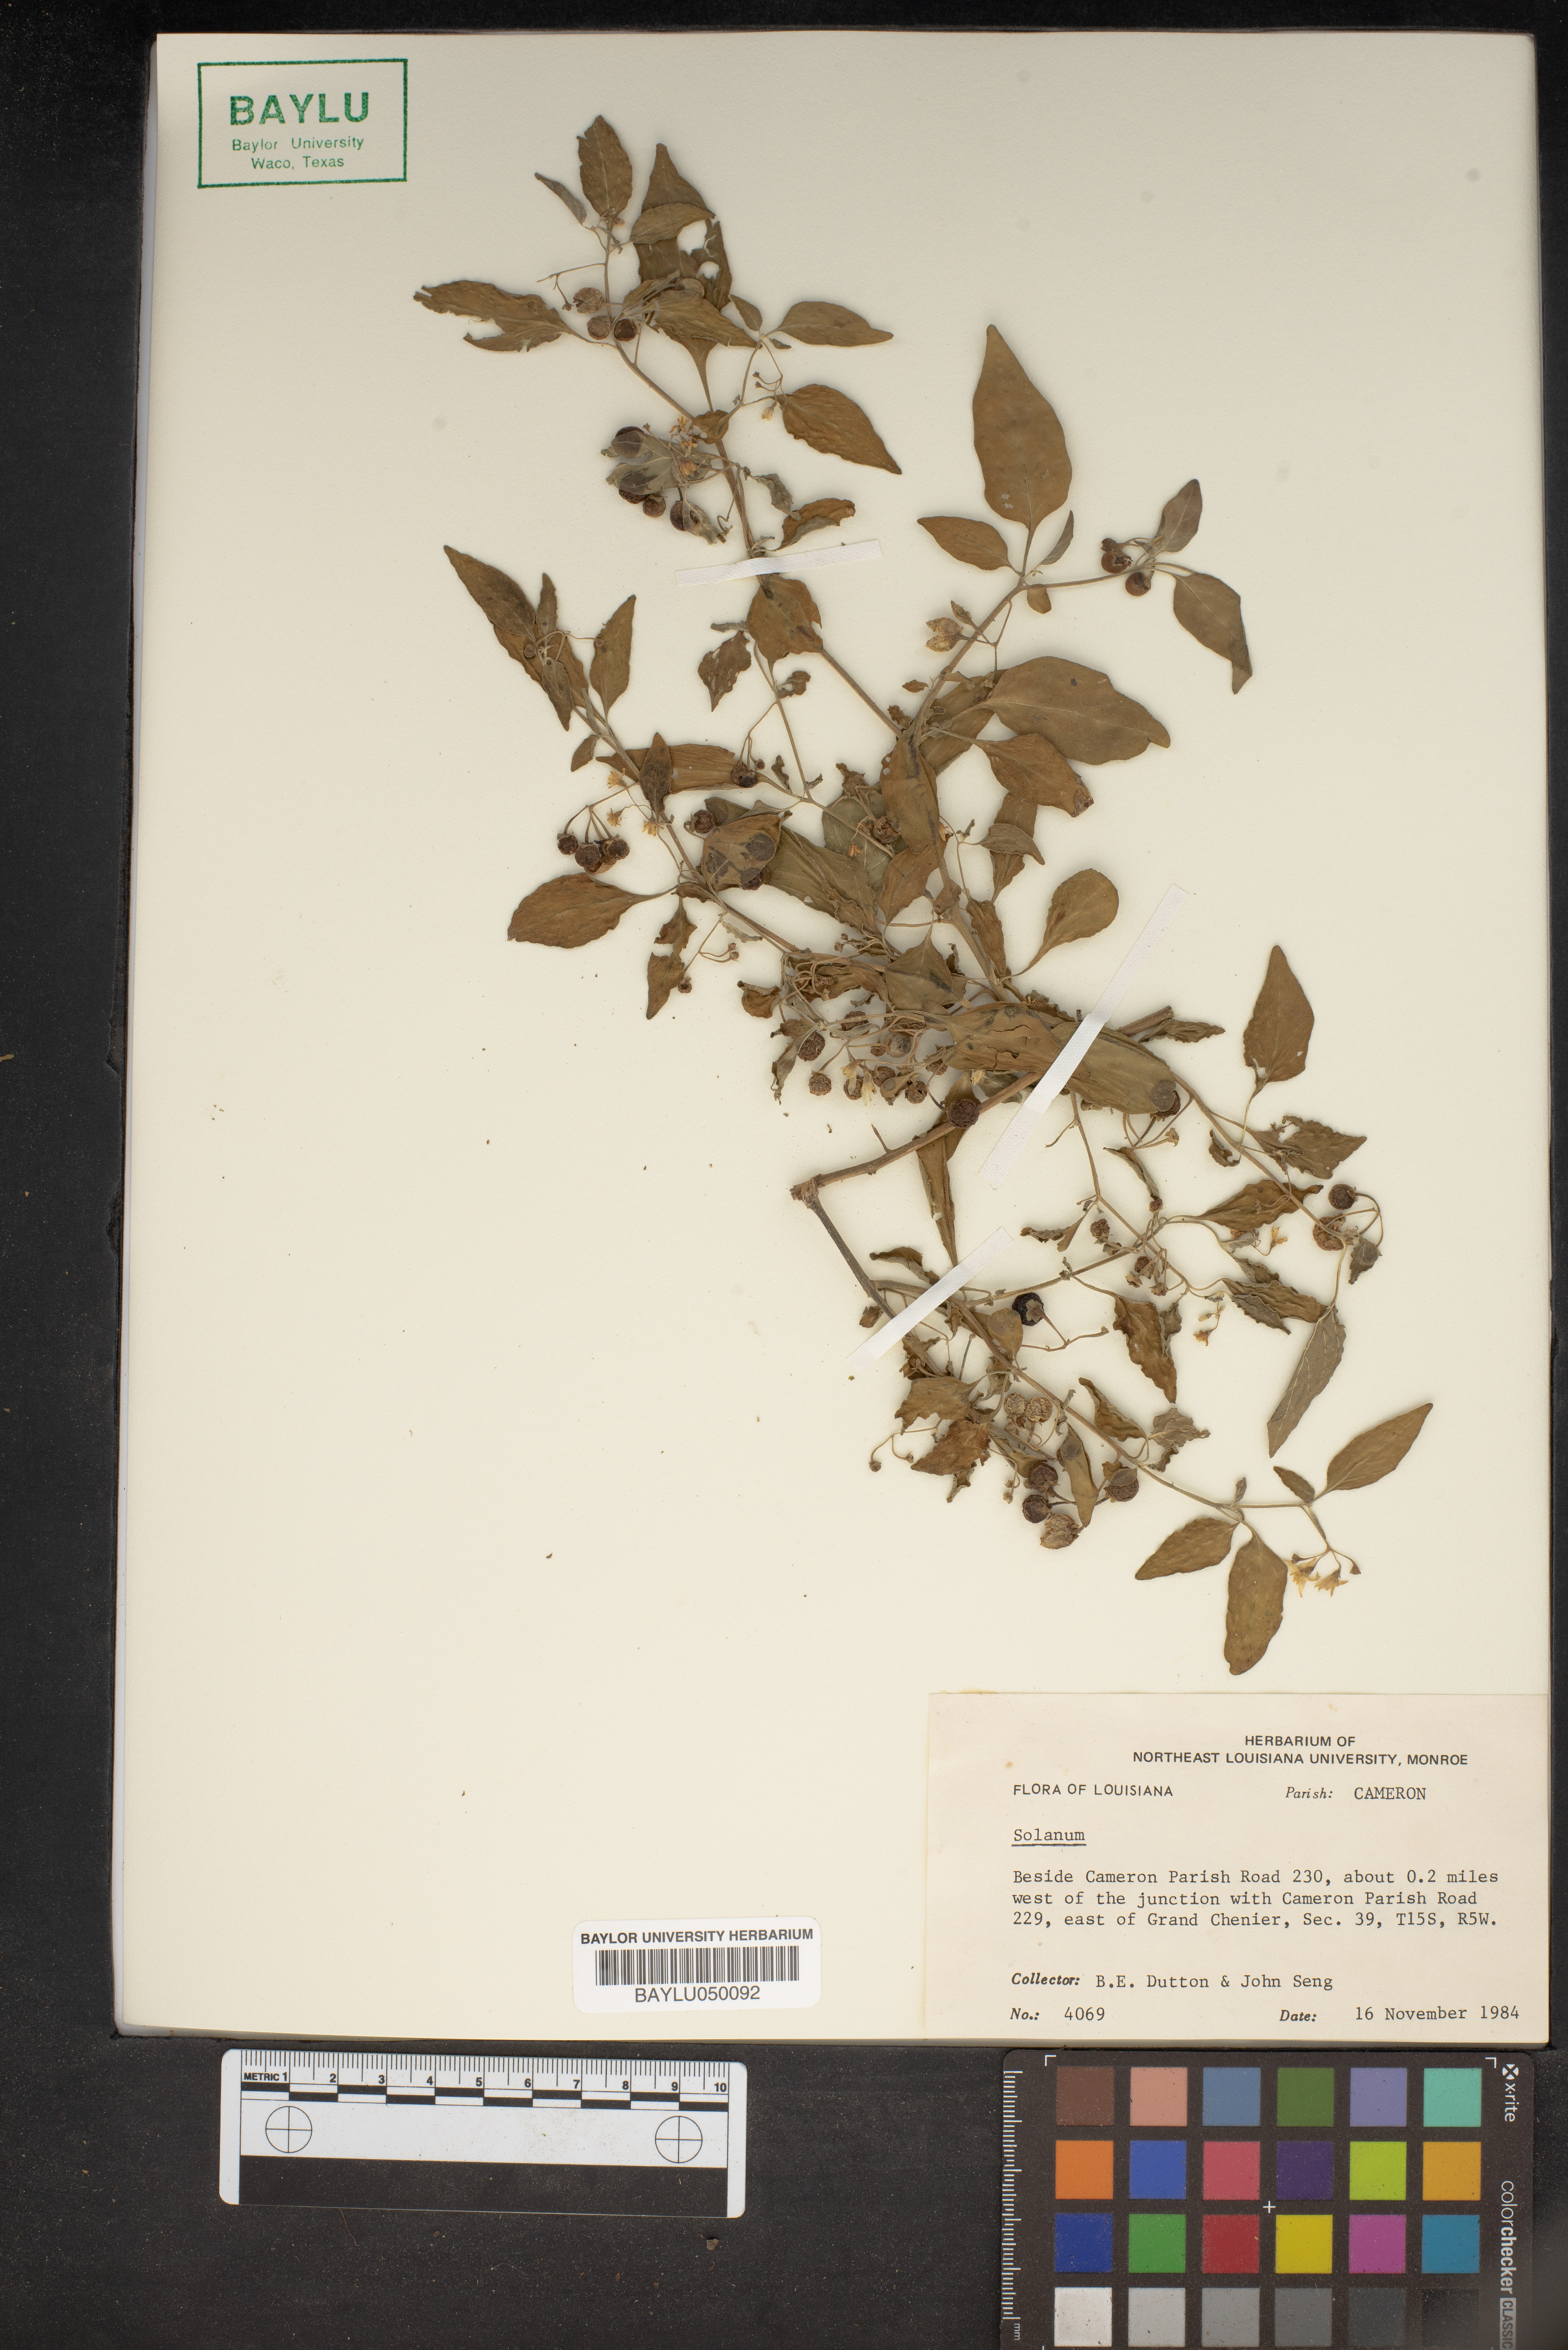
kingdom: Plantae
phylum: Tracheophyta
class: Magnoliopsida
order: Solanales
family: Solanaceae
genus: Solanum
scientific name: Solanum
